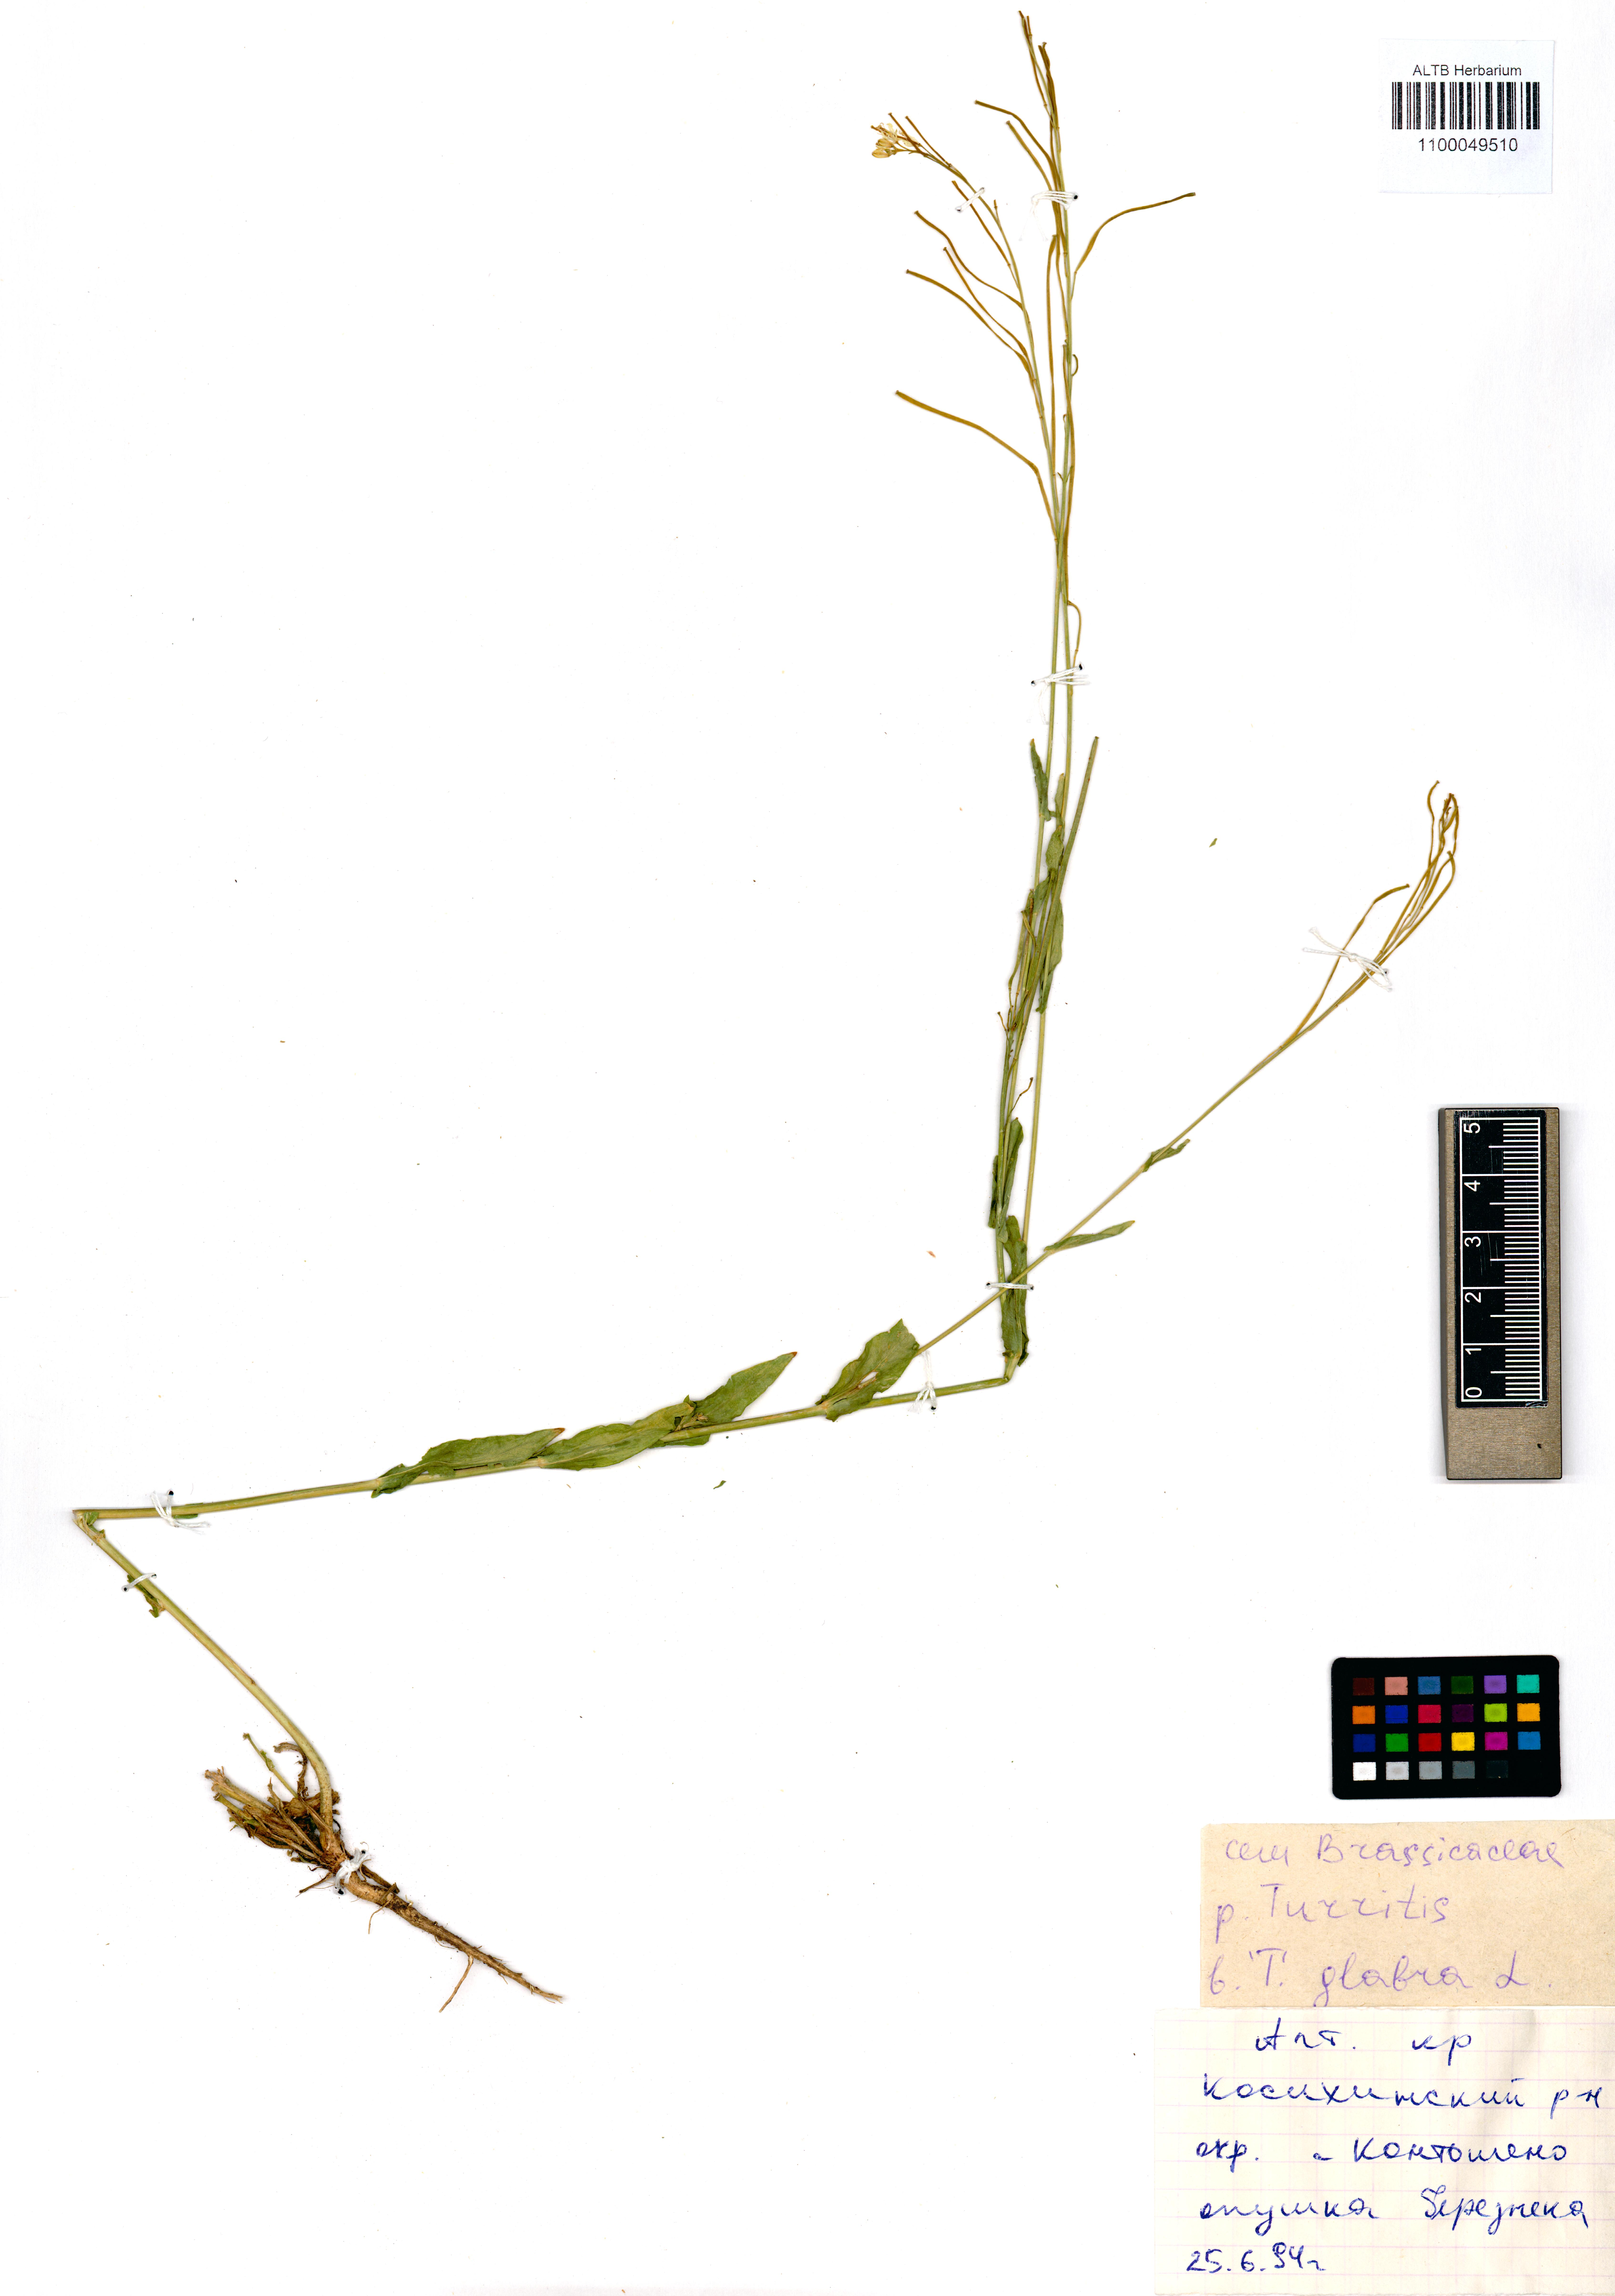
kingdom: Plantae
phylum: Tracheophyta
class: Magnoliopsida
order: Brassicales
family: Brassicaceae
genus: Turritis
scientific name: Turritis glabra
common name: Tower rockcress
